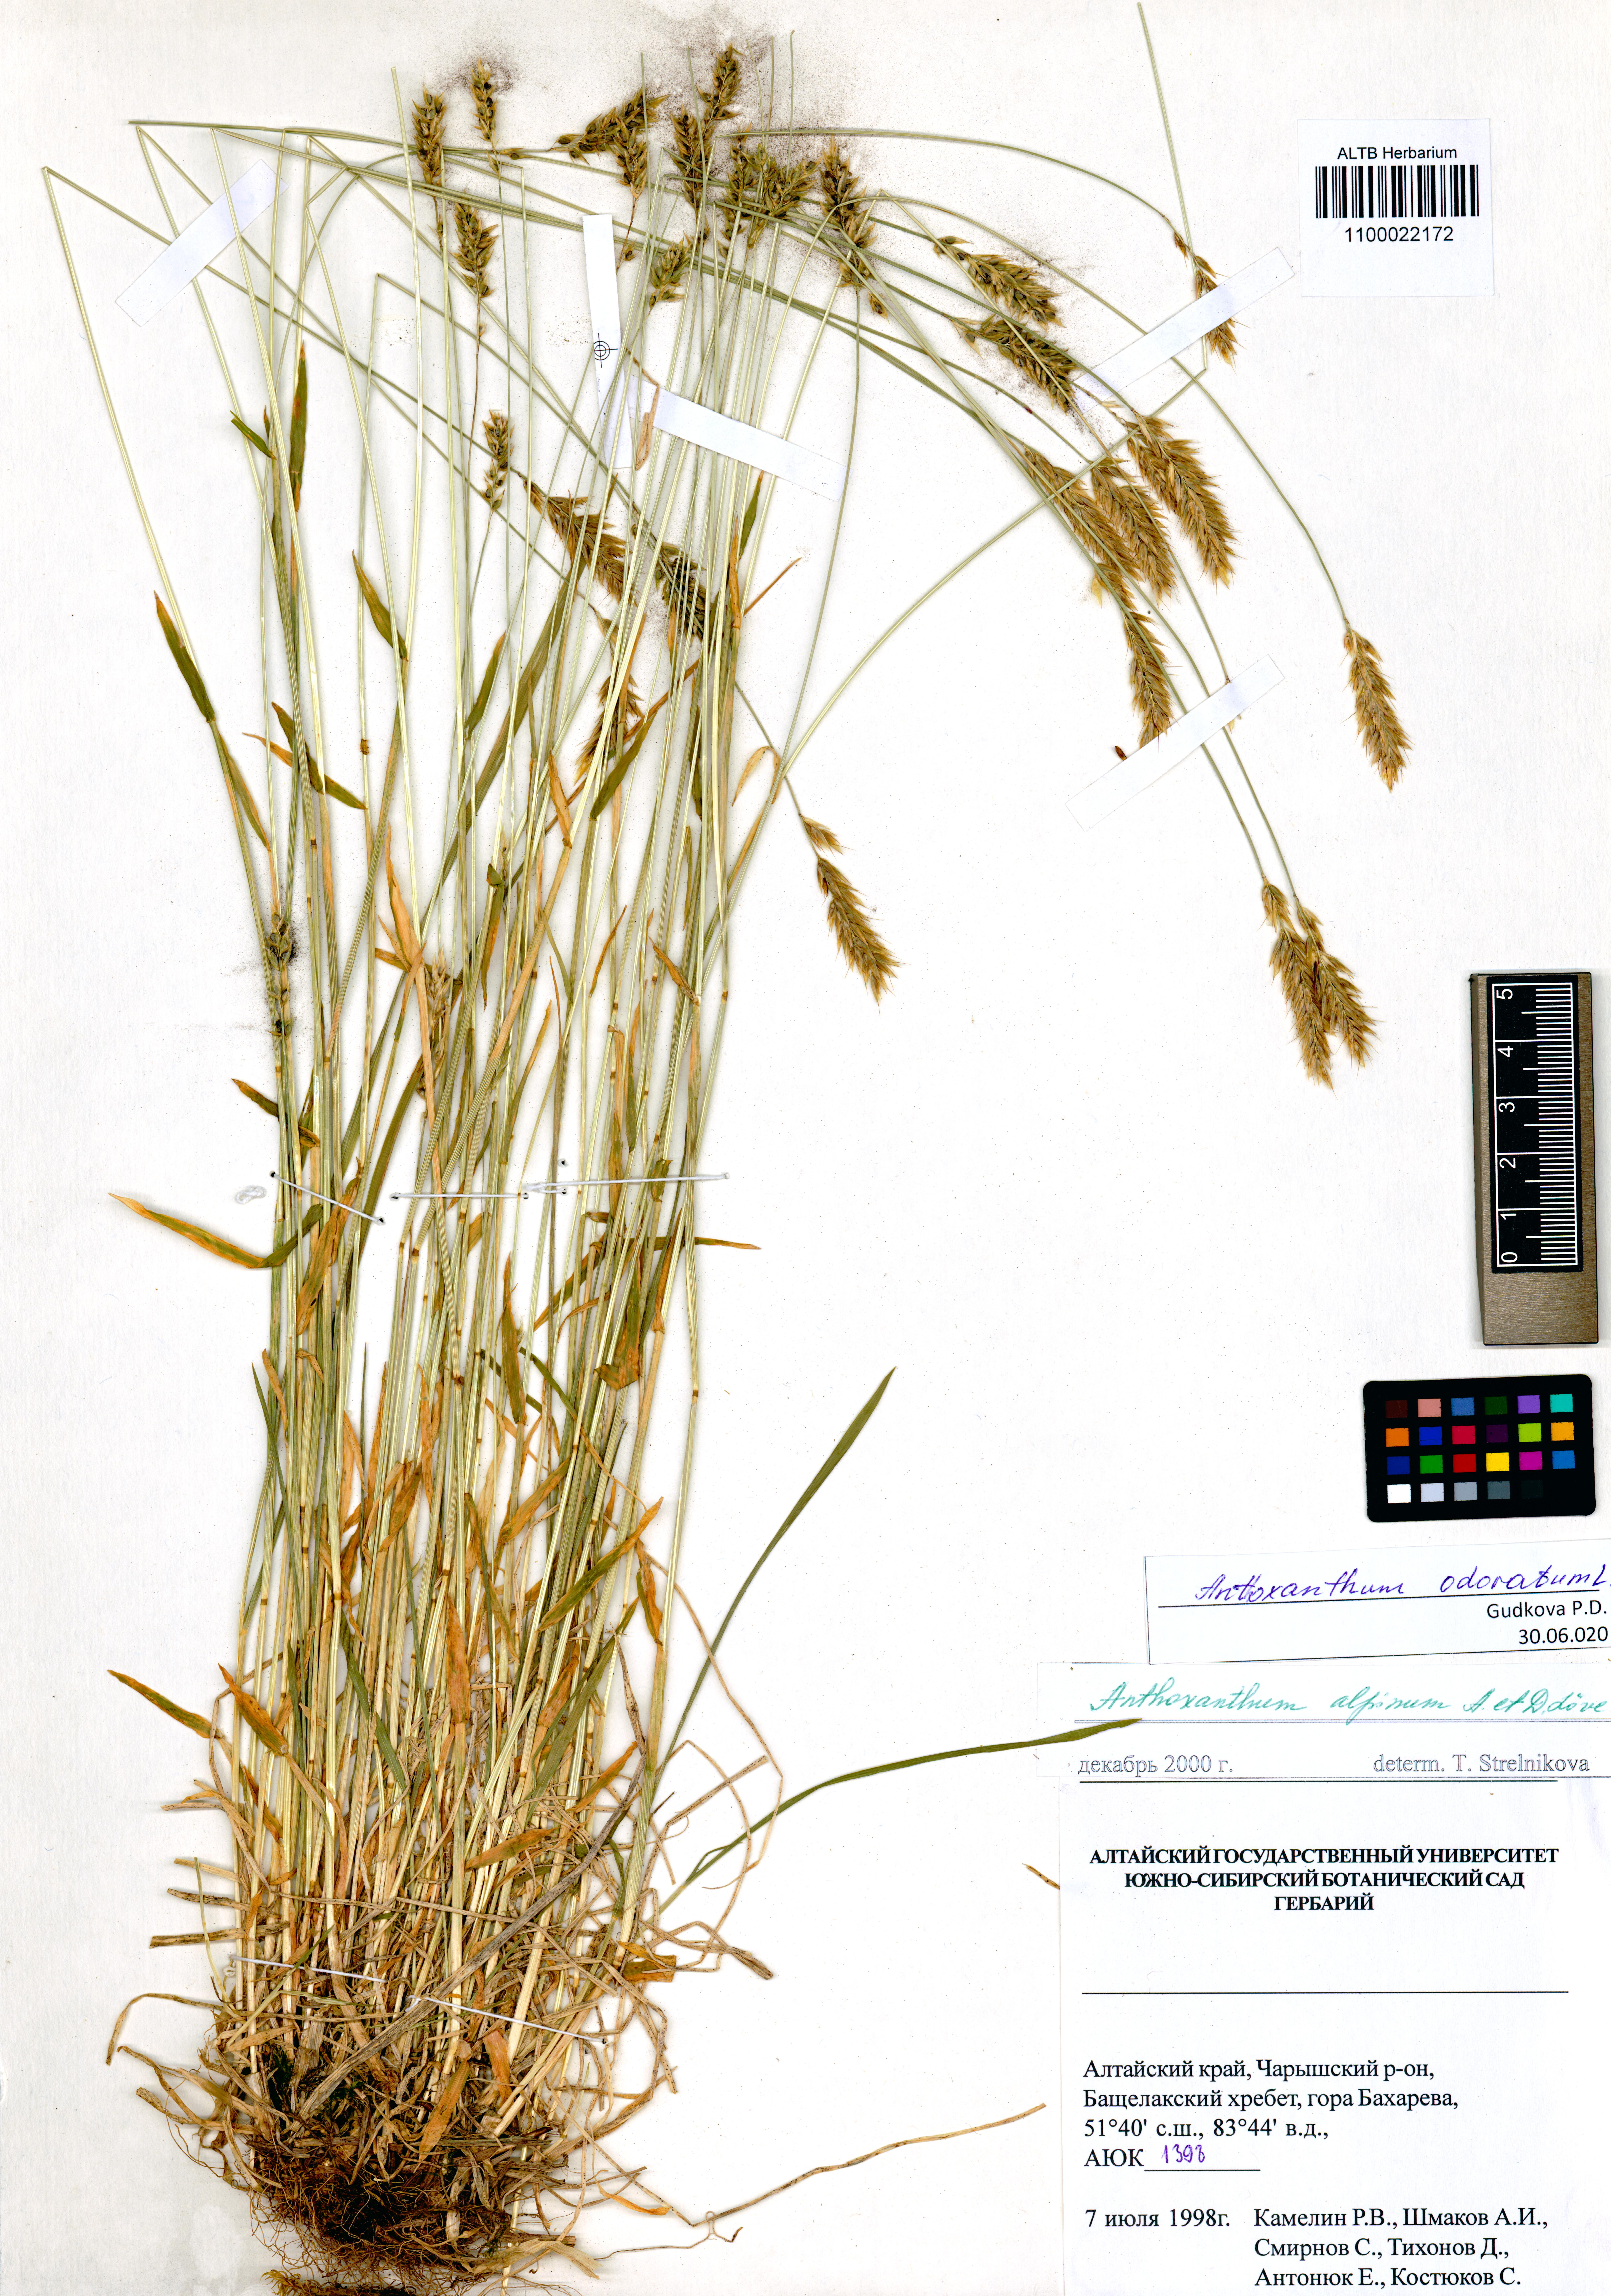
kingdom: Plantae
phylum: Tracheophyta
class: Liliopsida
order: Poales
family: Poaceae
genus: Anthoxanthum
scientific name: Anthoxanthum odoratum
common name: Sweet vernalgrass
